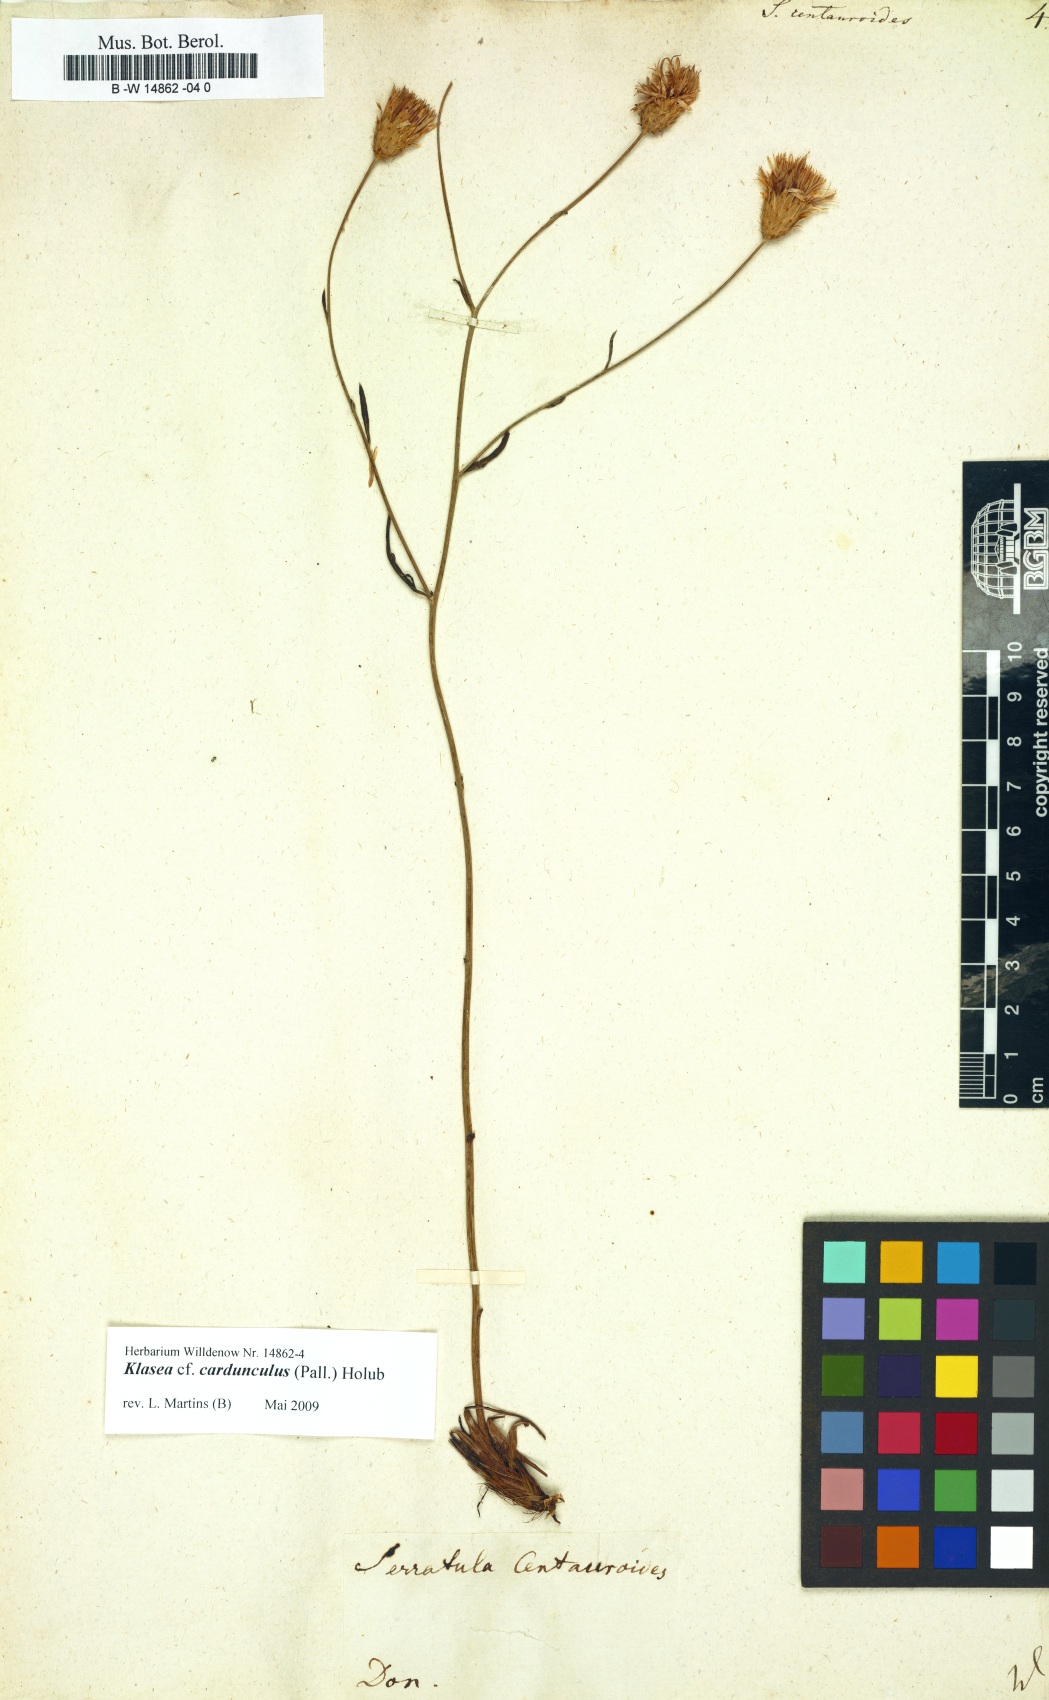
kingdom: Plantae
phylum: Tracheophyta
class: Magnoliopsida
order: Asterales
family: Asteraceae
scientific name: Asteraceae
